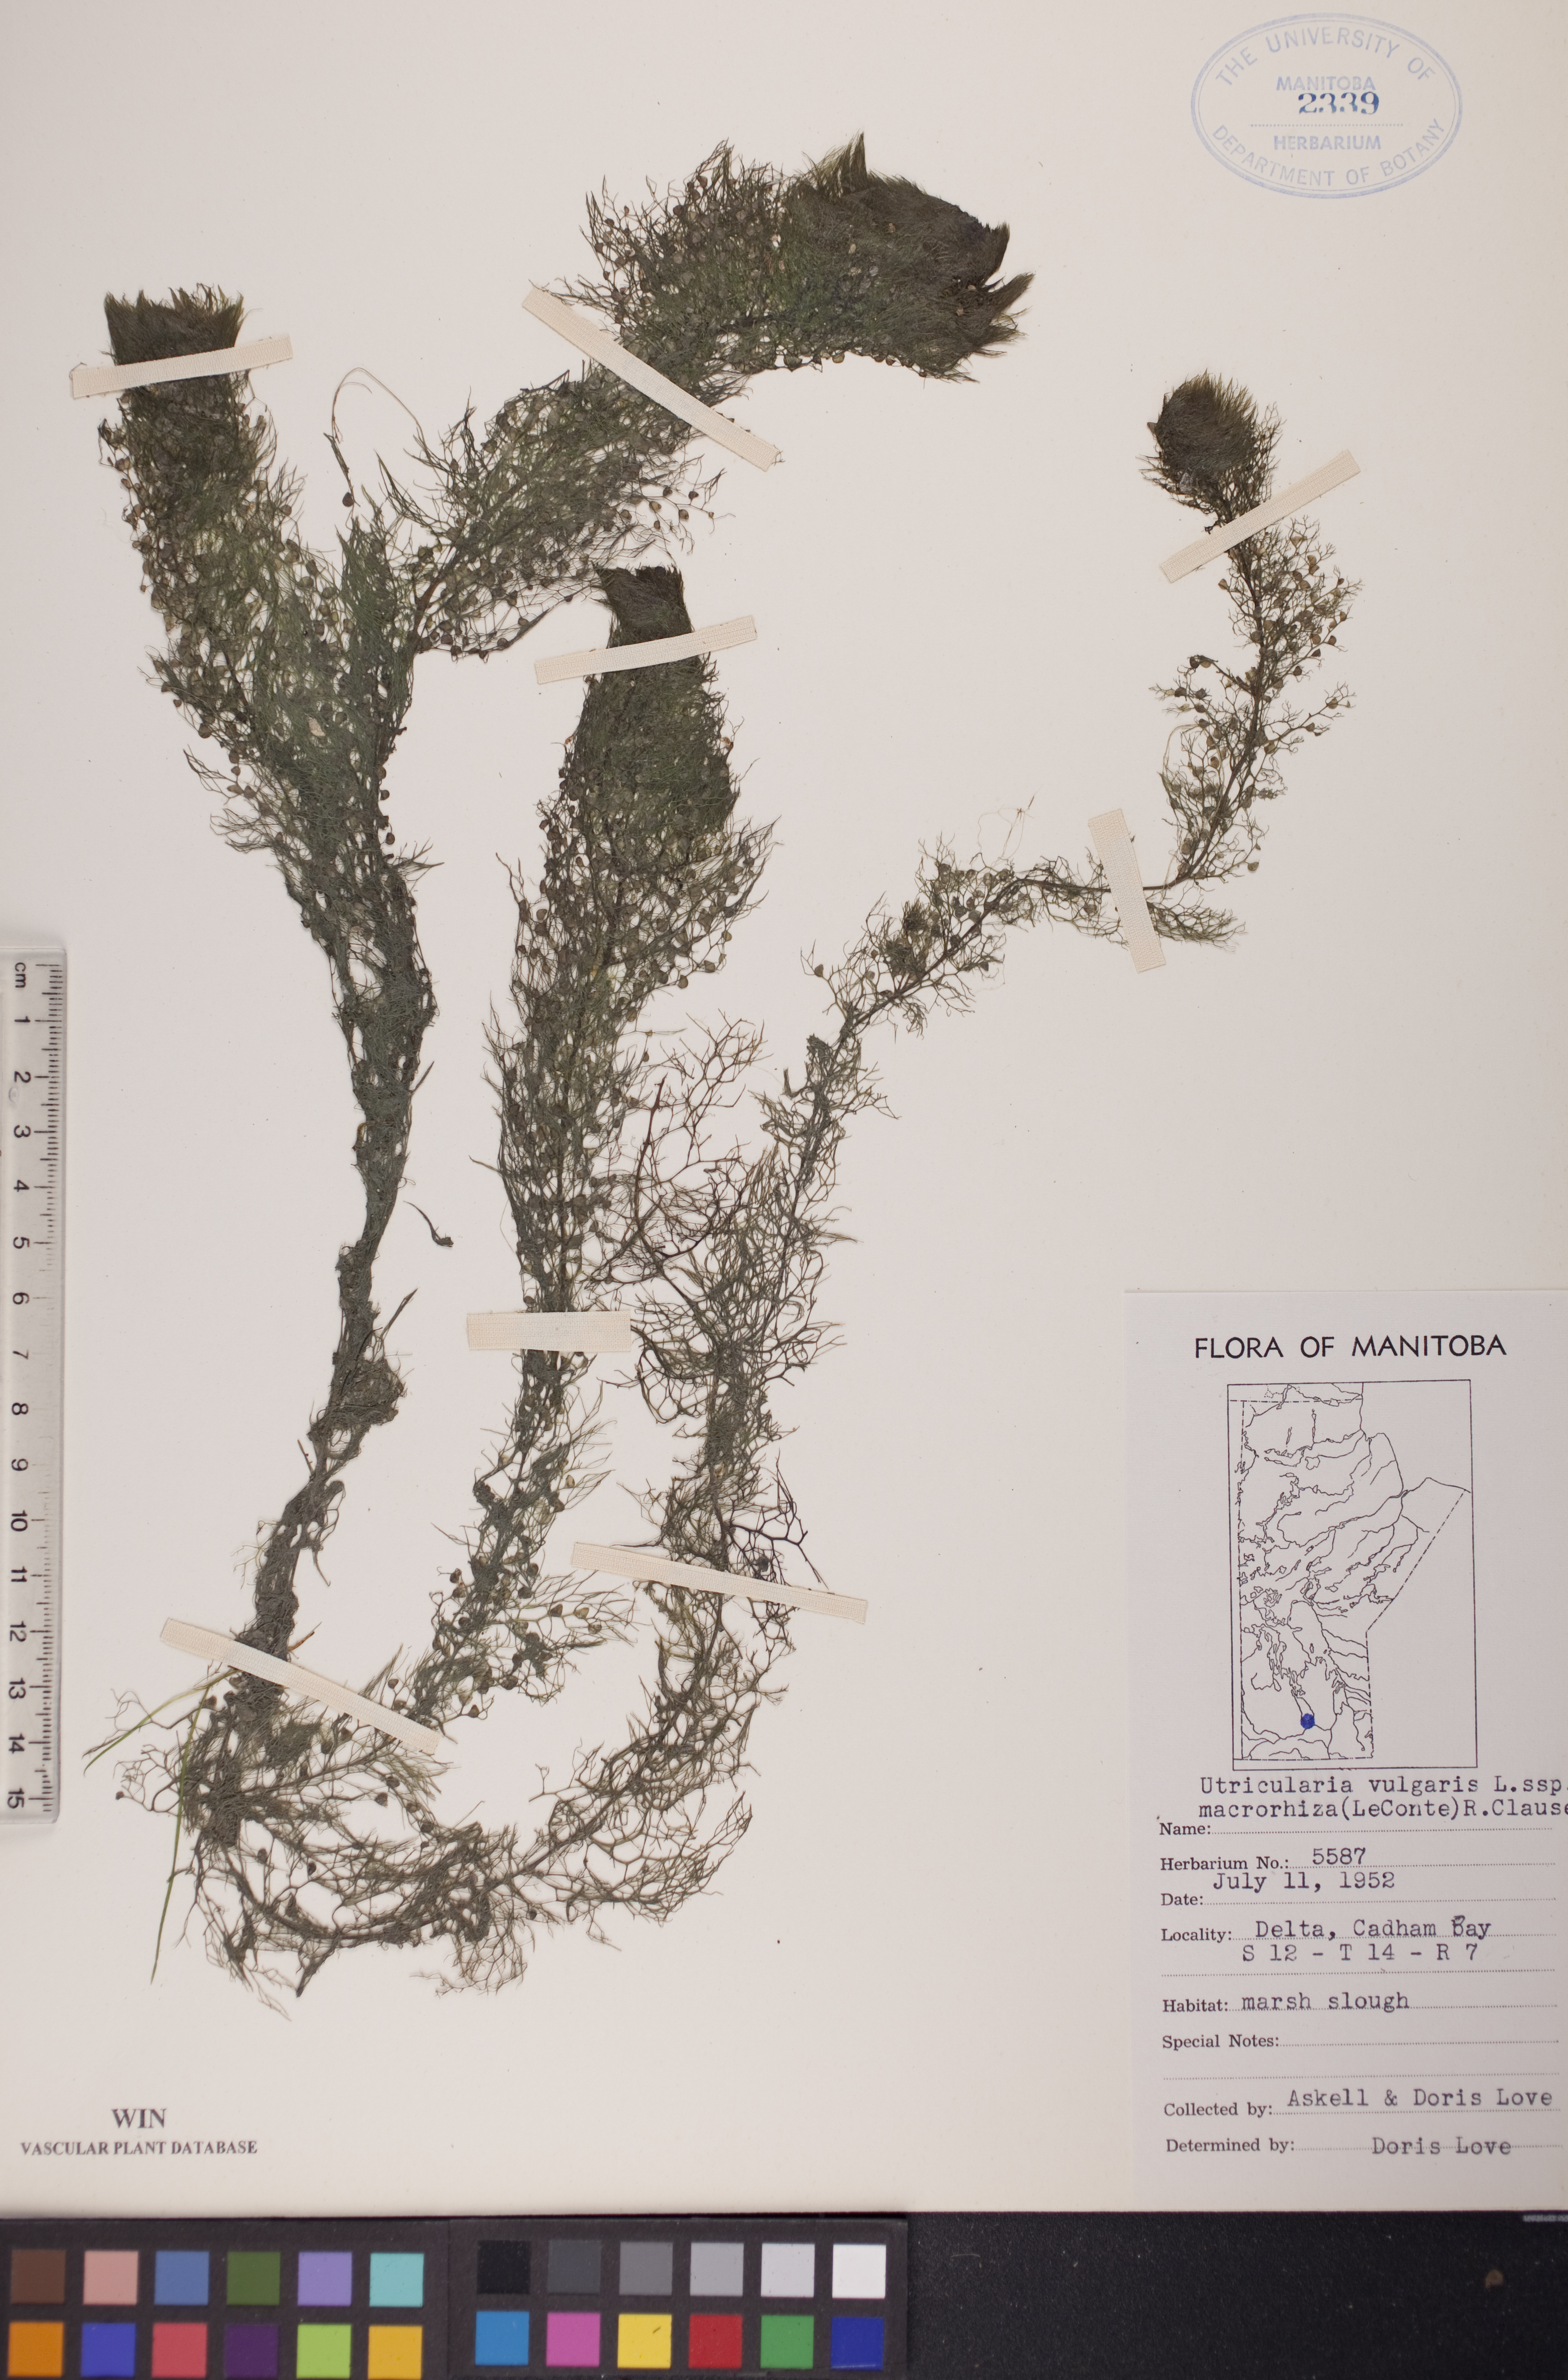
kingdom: Plantae
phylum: Tracheophyta
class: Magnoliopsida
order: Lamiales
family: Lentibulariaceae
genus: Utricularia
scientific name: Utricularia macrorhiza
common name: Common bladderwort
